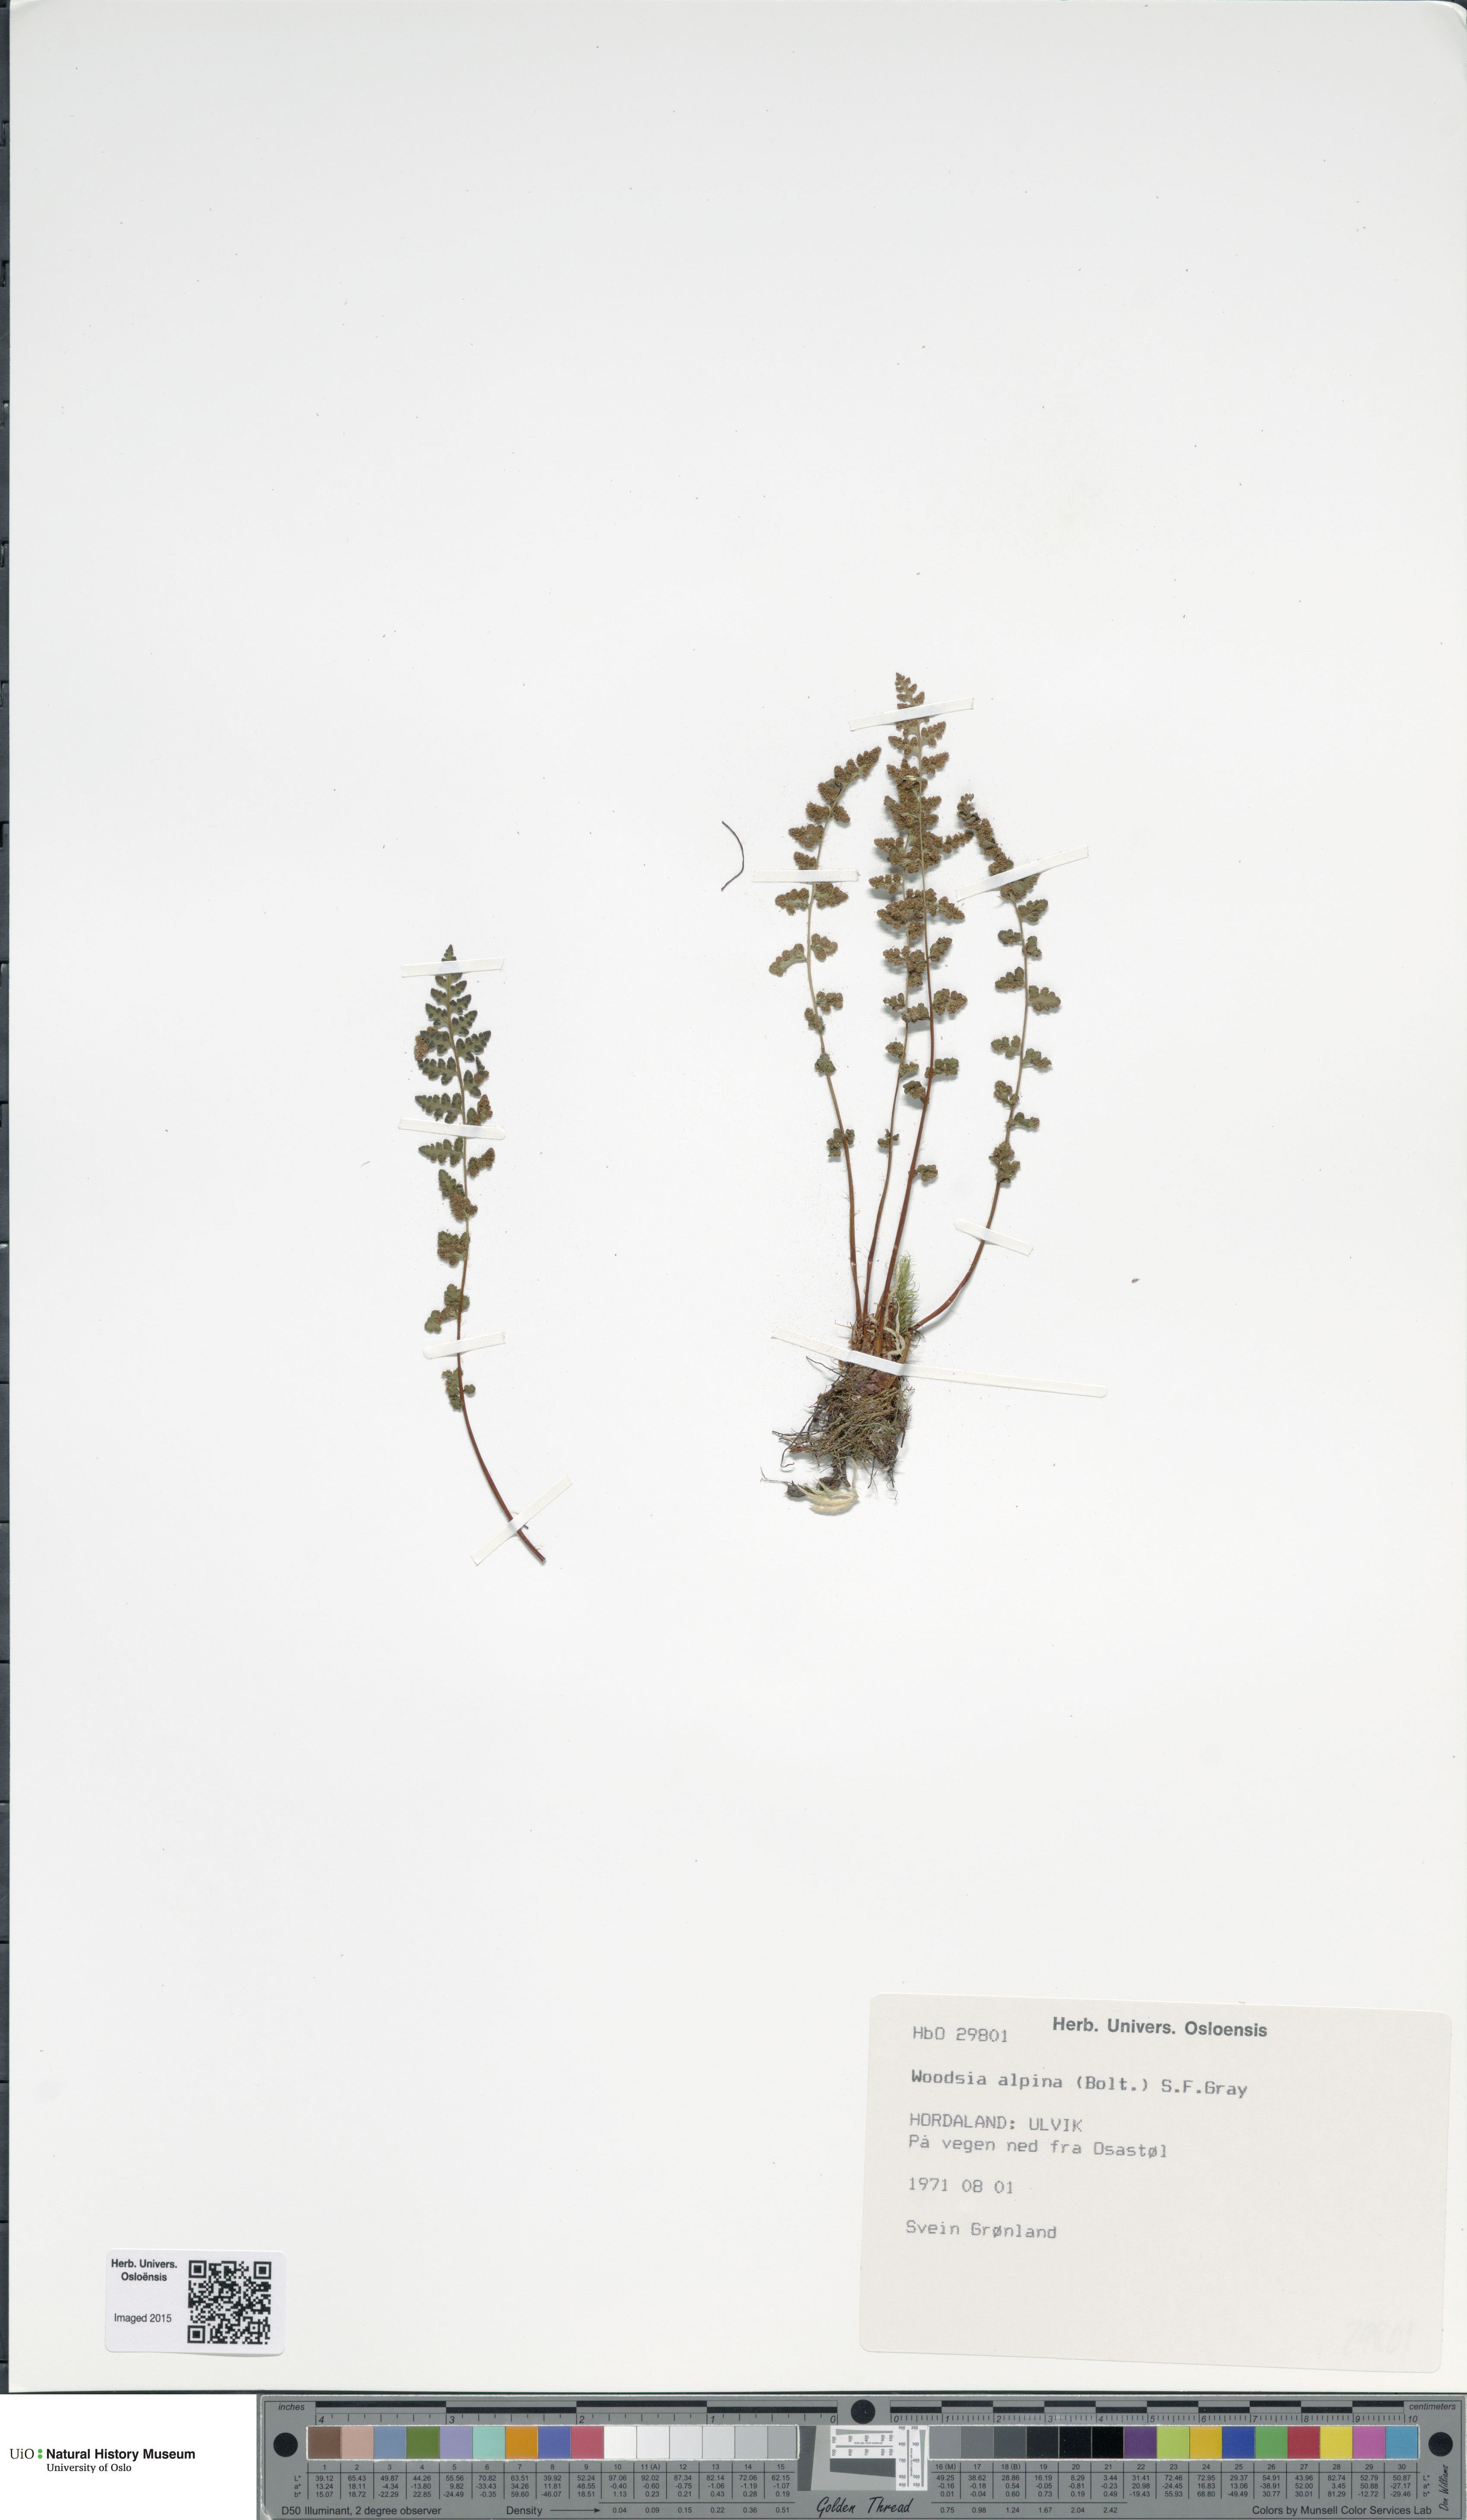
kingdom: Plantae
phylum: Tracheophyta
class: Polypodiopsida
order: Polypodiales
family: Woodsiaceae
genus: Woodsia
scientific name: Woodsia alpina
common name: Alpine woodsia
